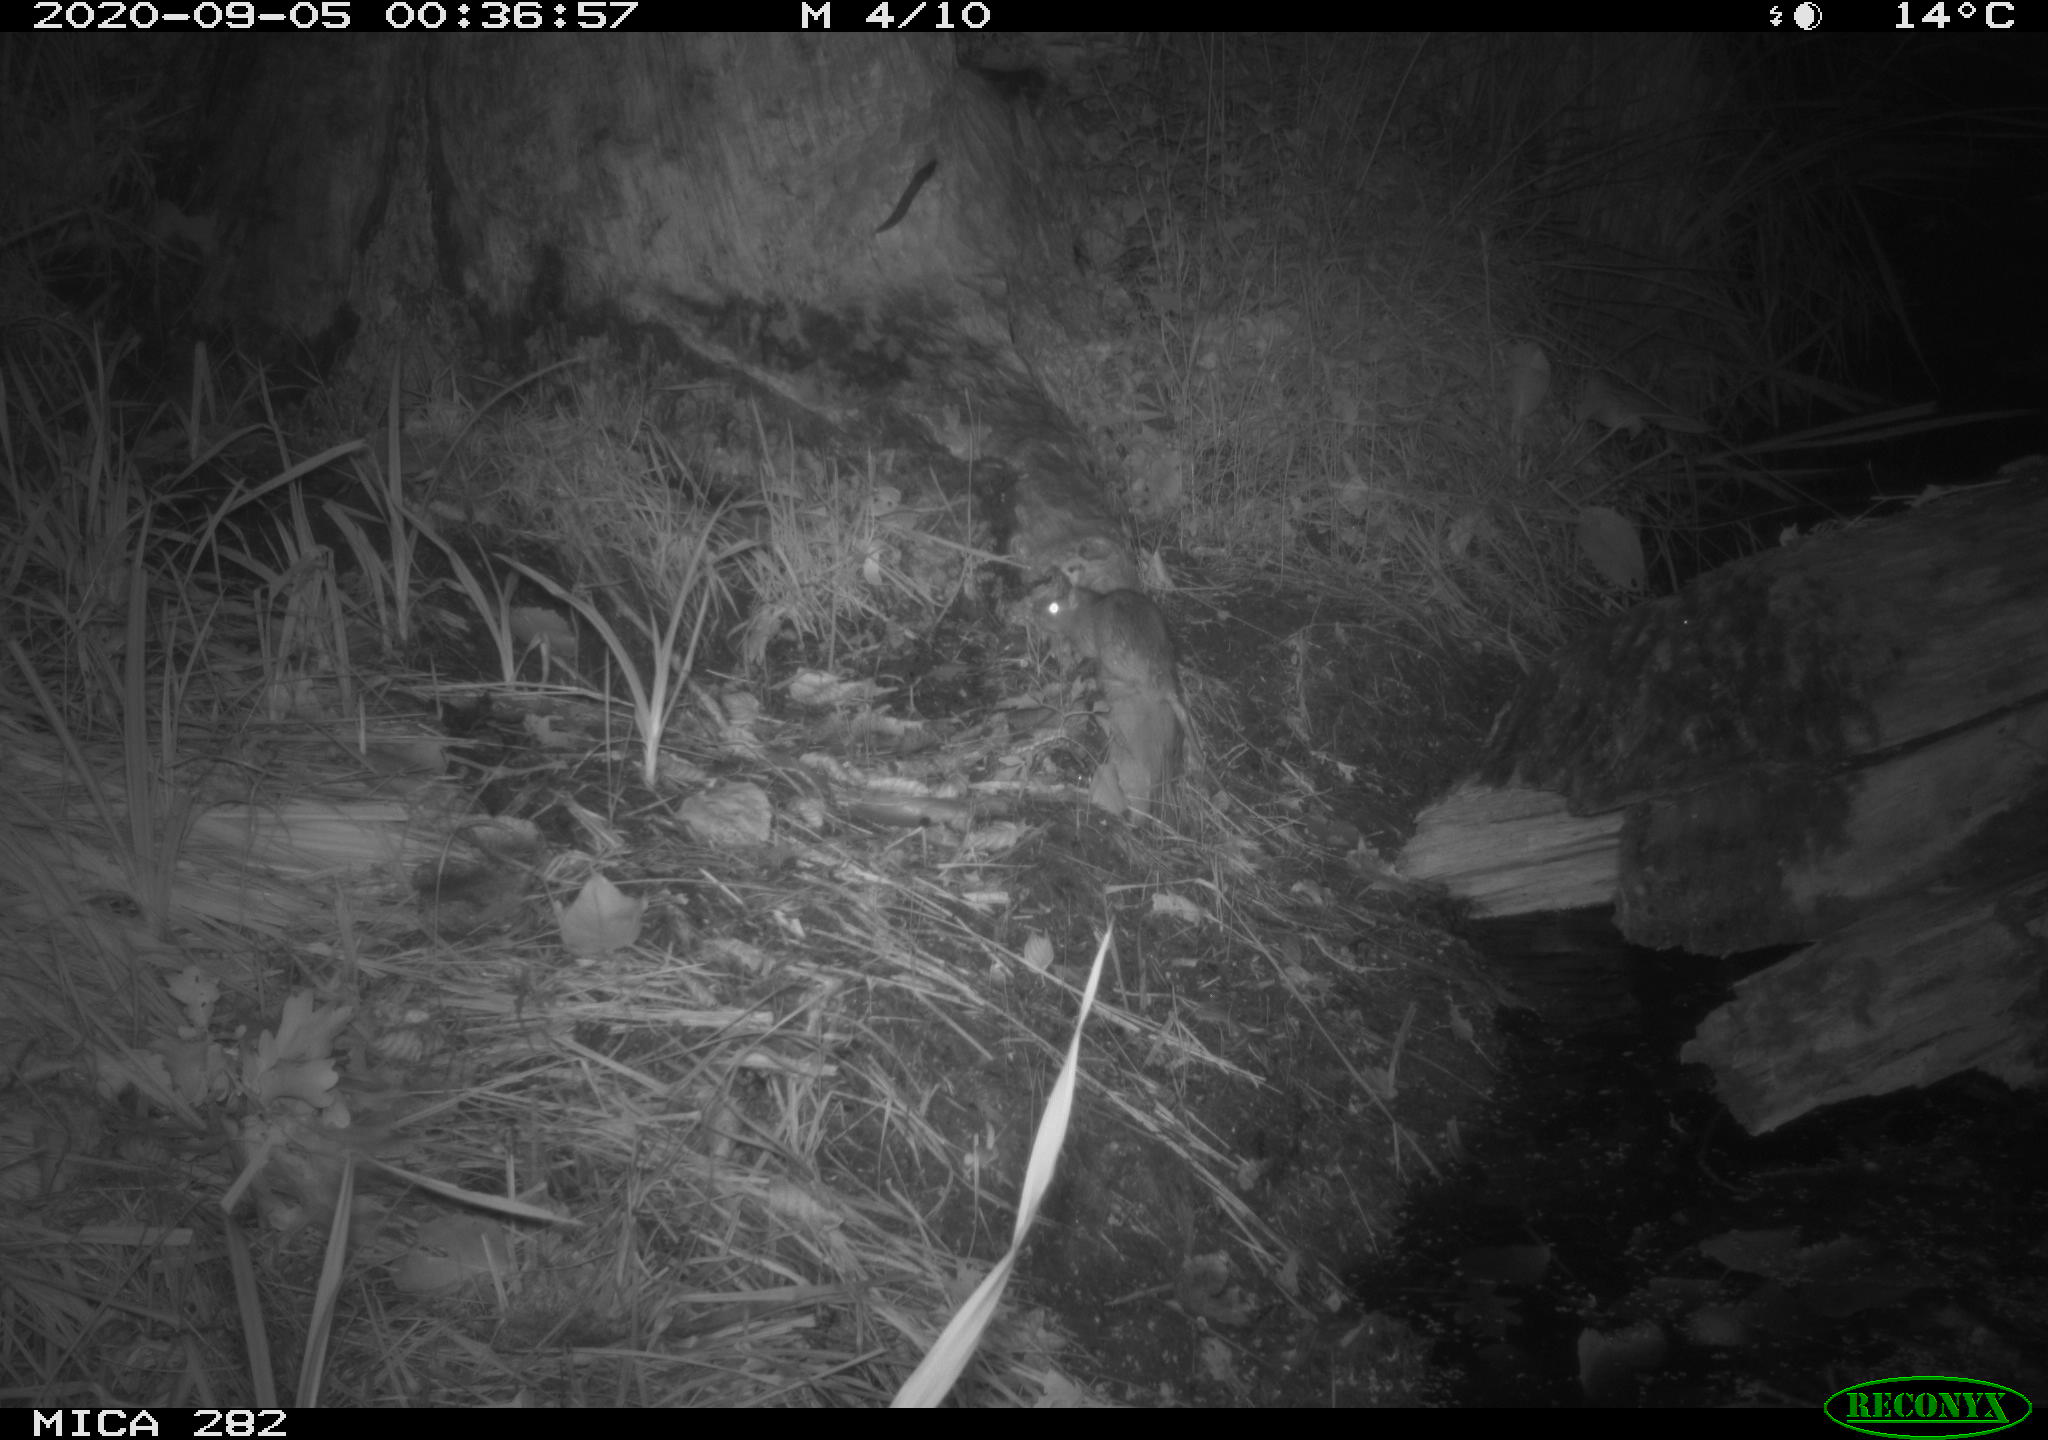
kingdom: Animalia
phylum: Chordata
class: Mammalia
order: Rodentia
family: Muridae
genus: Rattus
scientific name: Rattus norvegicus
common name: Brown rat
